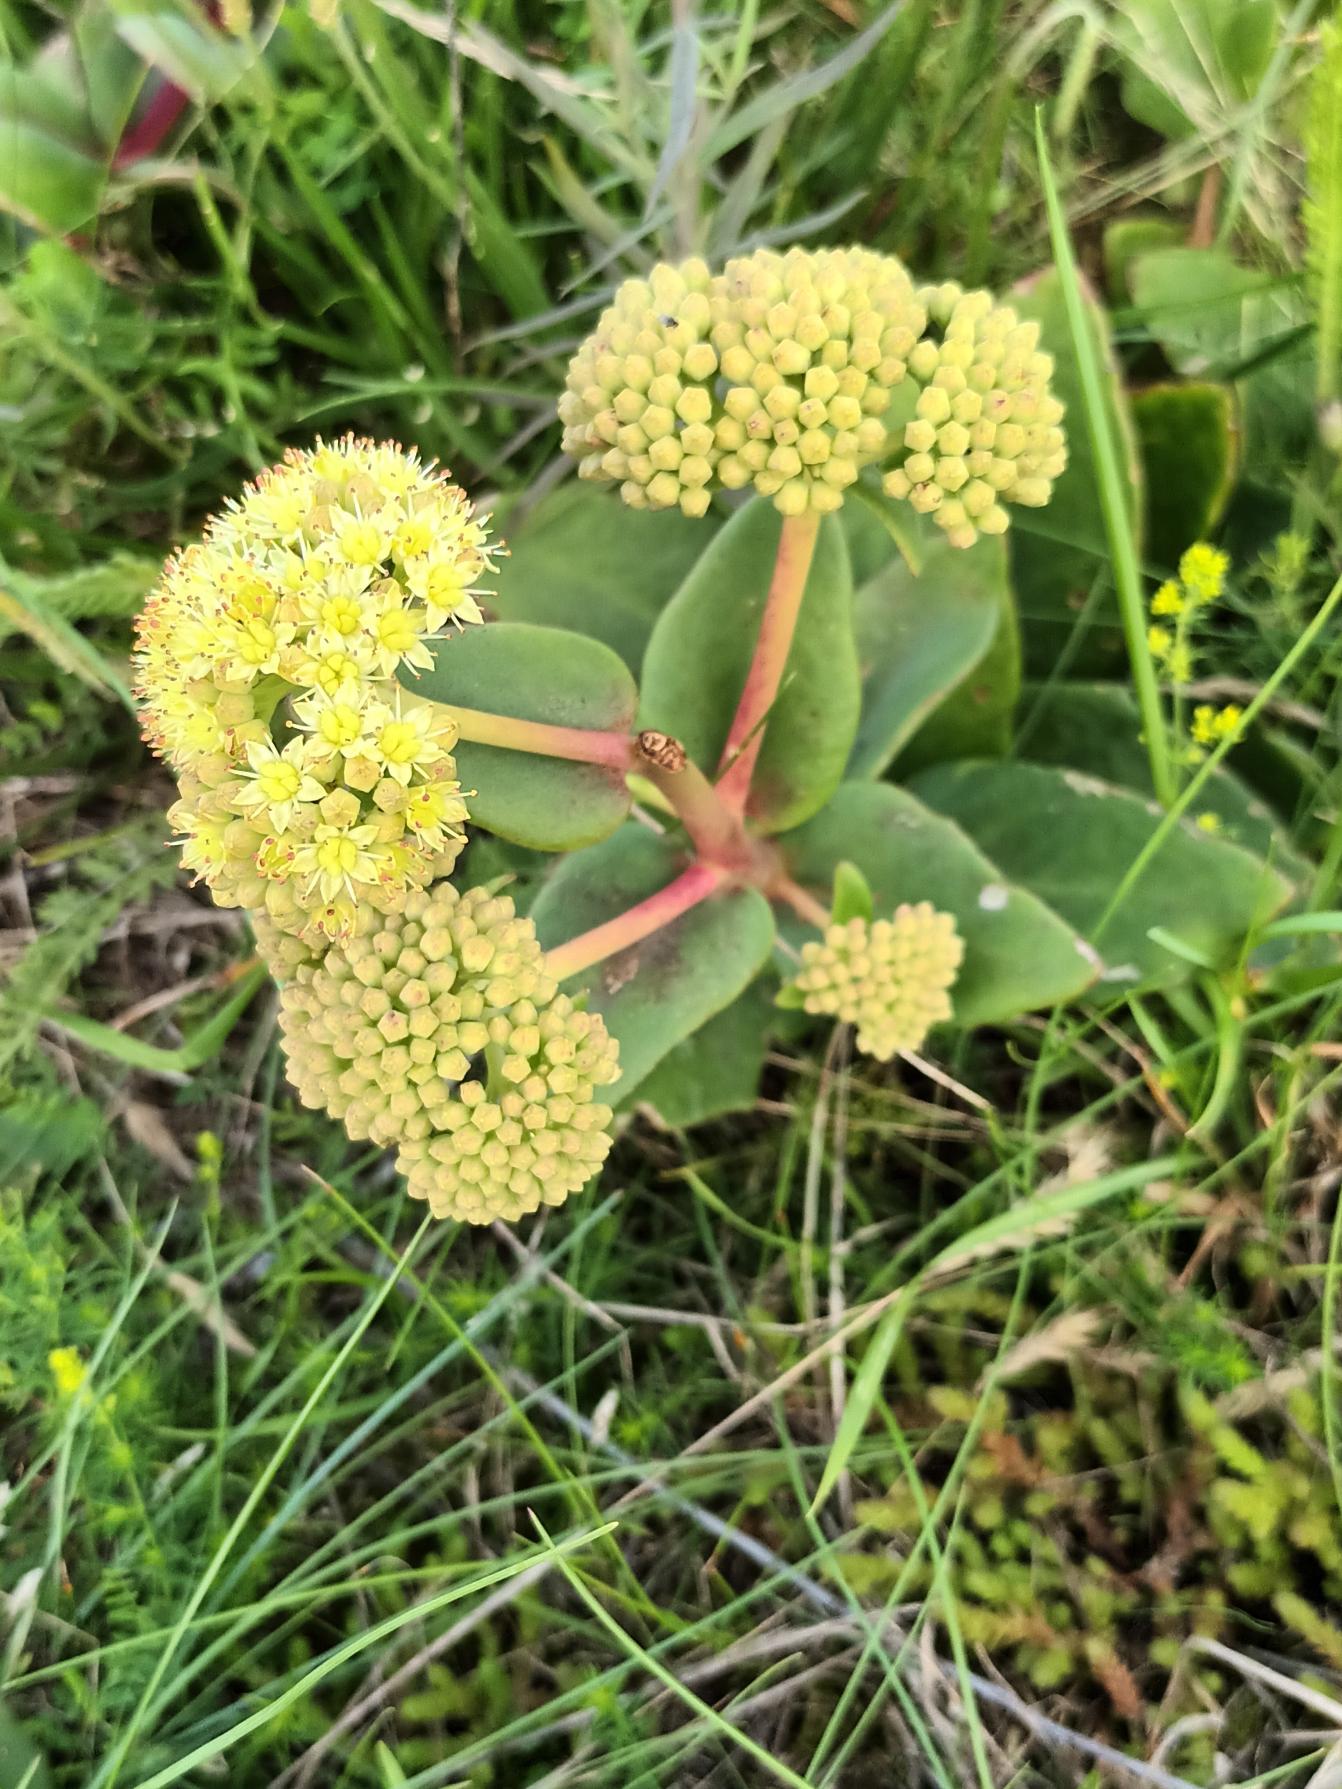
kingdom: Plantae
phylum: Tracheophyta
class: Magnoliopsida
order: Saxifragales
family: Crassulaceae
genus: Hylotelephium
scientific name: Hylotelephium maximum
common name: Almindelig sankthansurt
